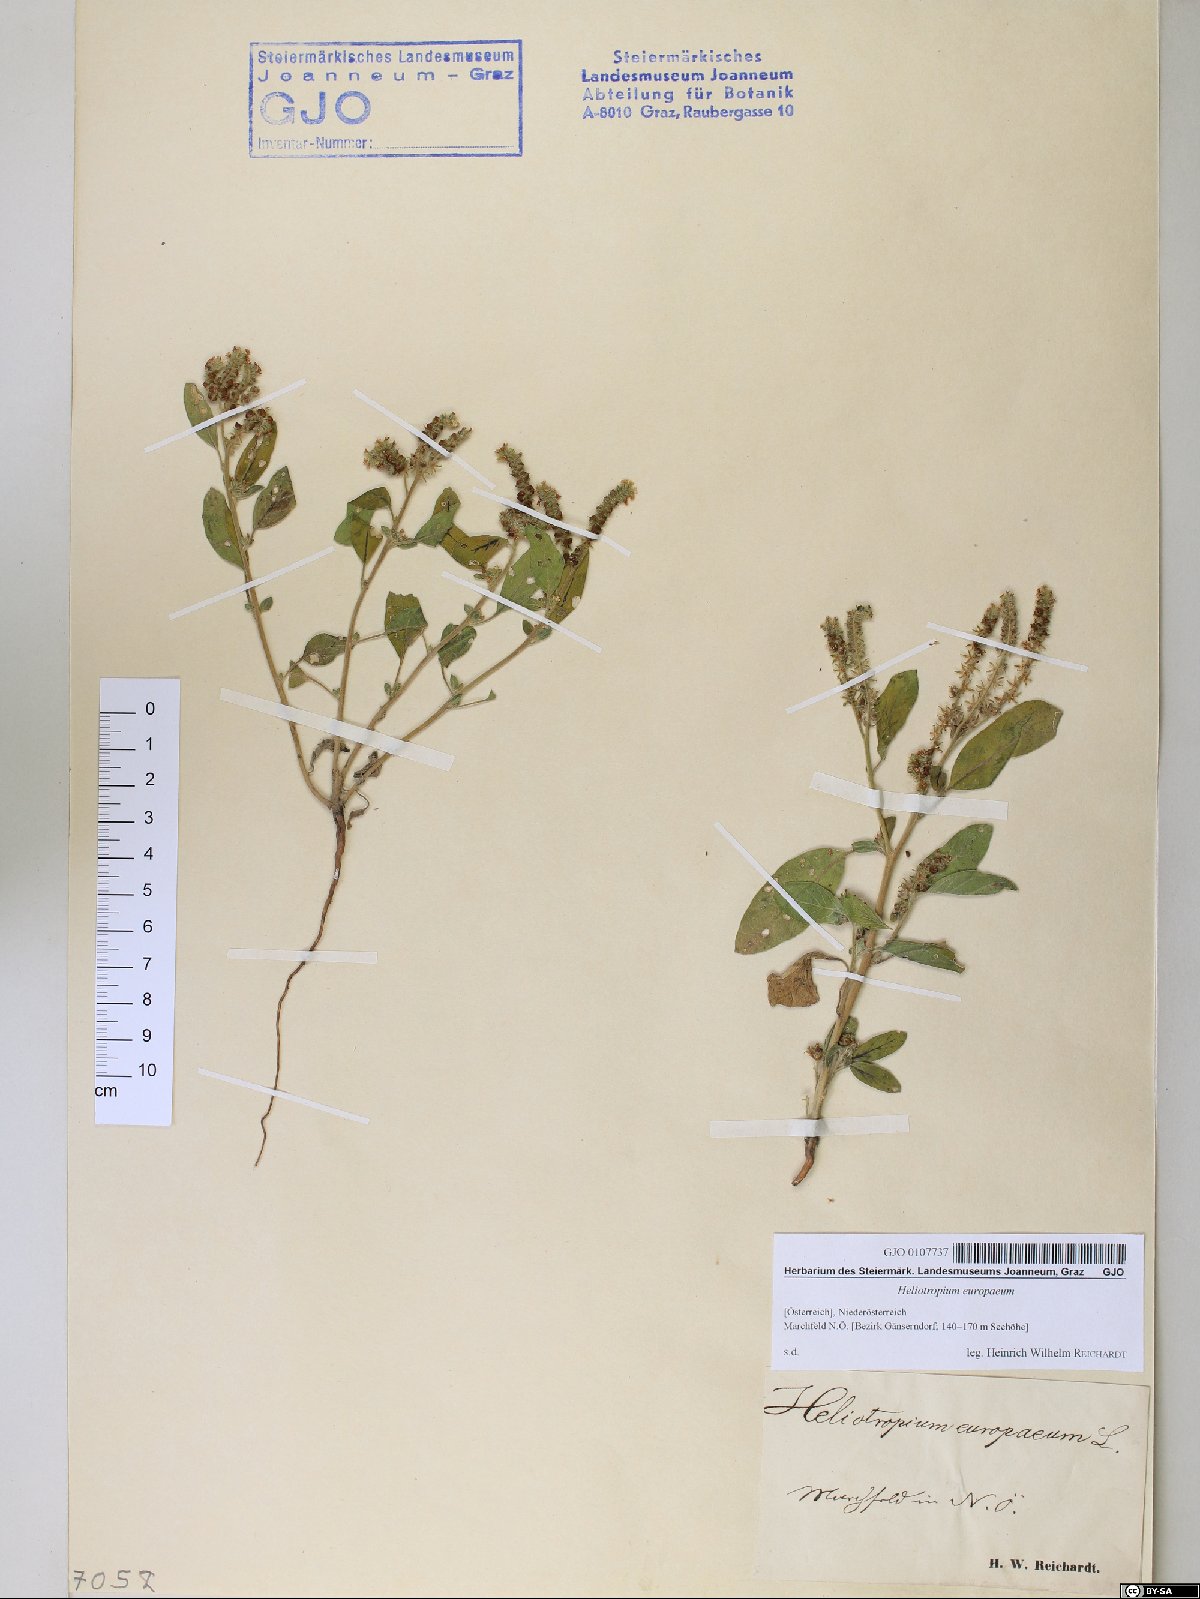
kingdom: Plantae
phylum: Tracheophyta
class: Magnoliopsida
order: Boraginales
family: Heliotropiaceae
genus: Heliotropium
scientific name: Heliotropium europaeum
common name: European heliotrope
